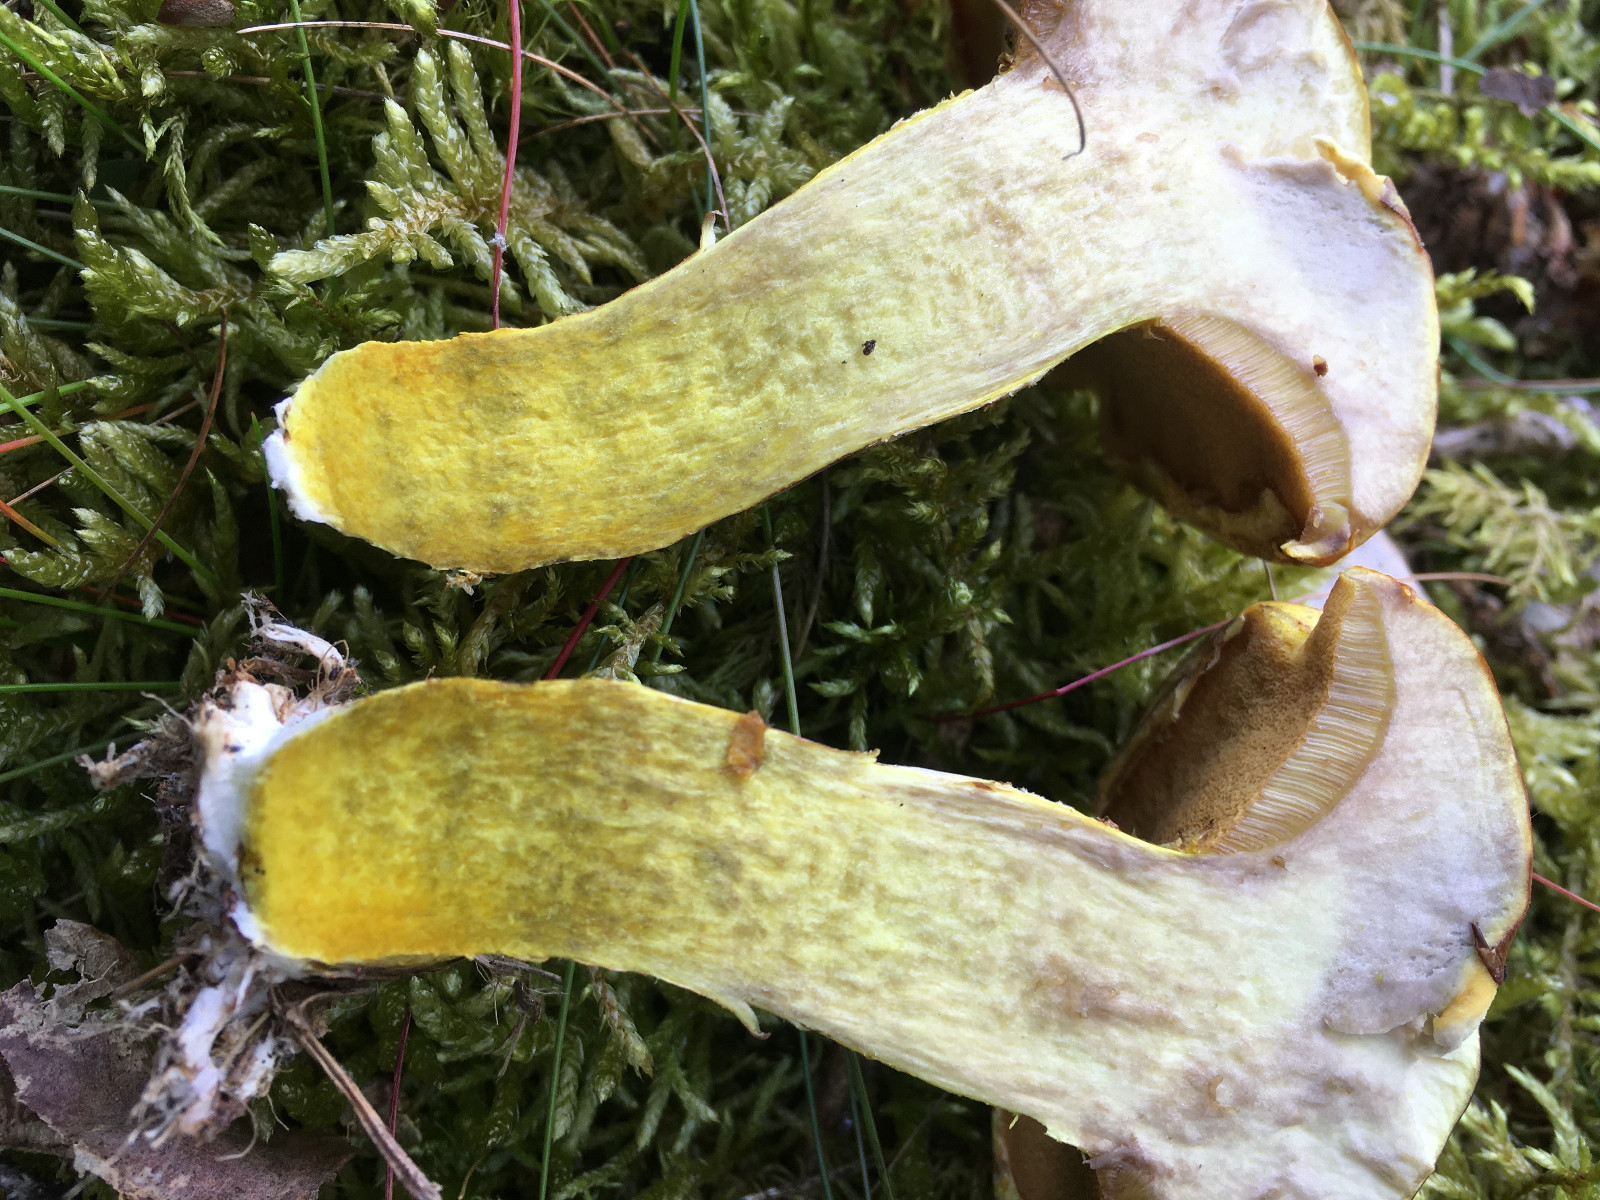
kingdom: Fungi
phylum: Basidiomycota
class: Agaricomycetes
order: Boletales
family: Suillaceae
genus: Suillus
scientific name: Suillus grevillei
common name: lærke-slimrørhat
